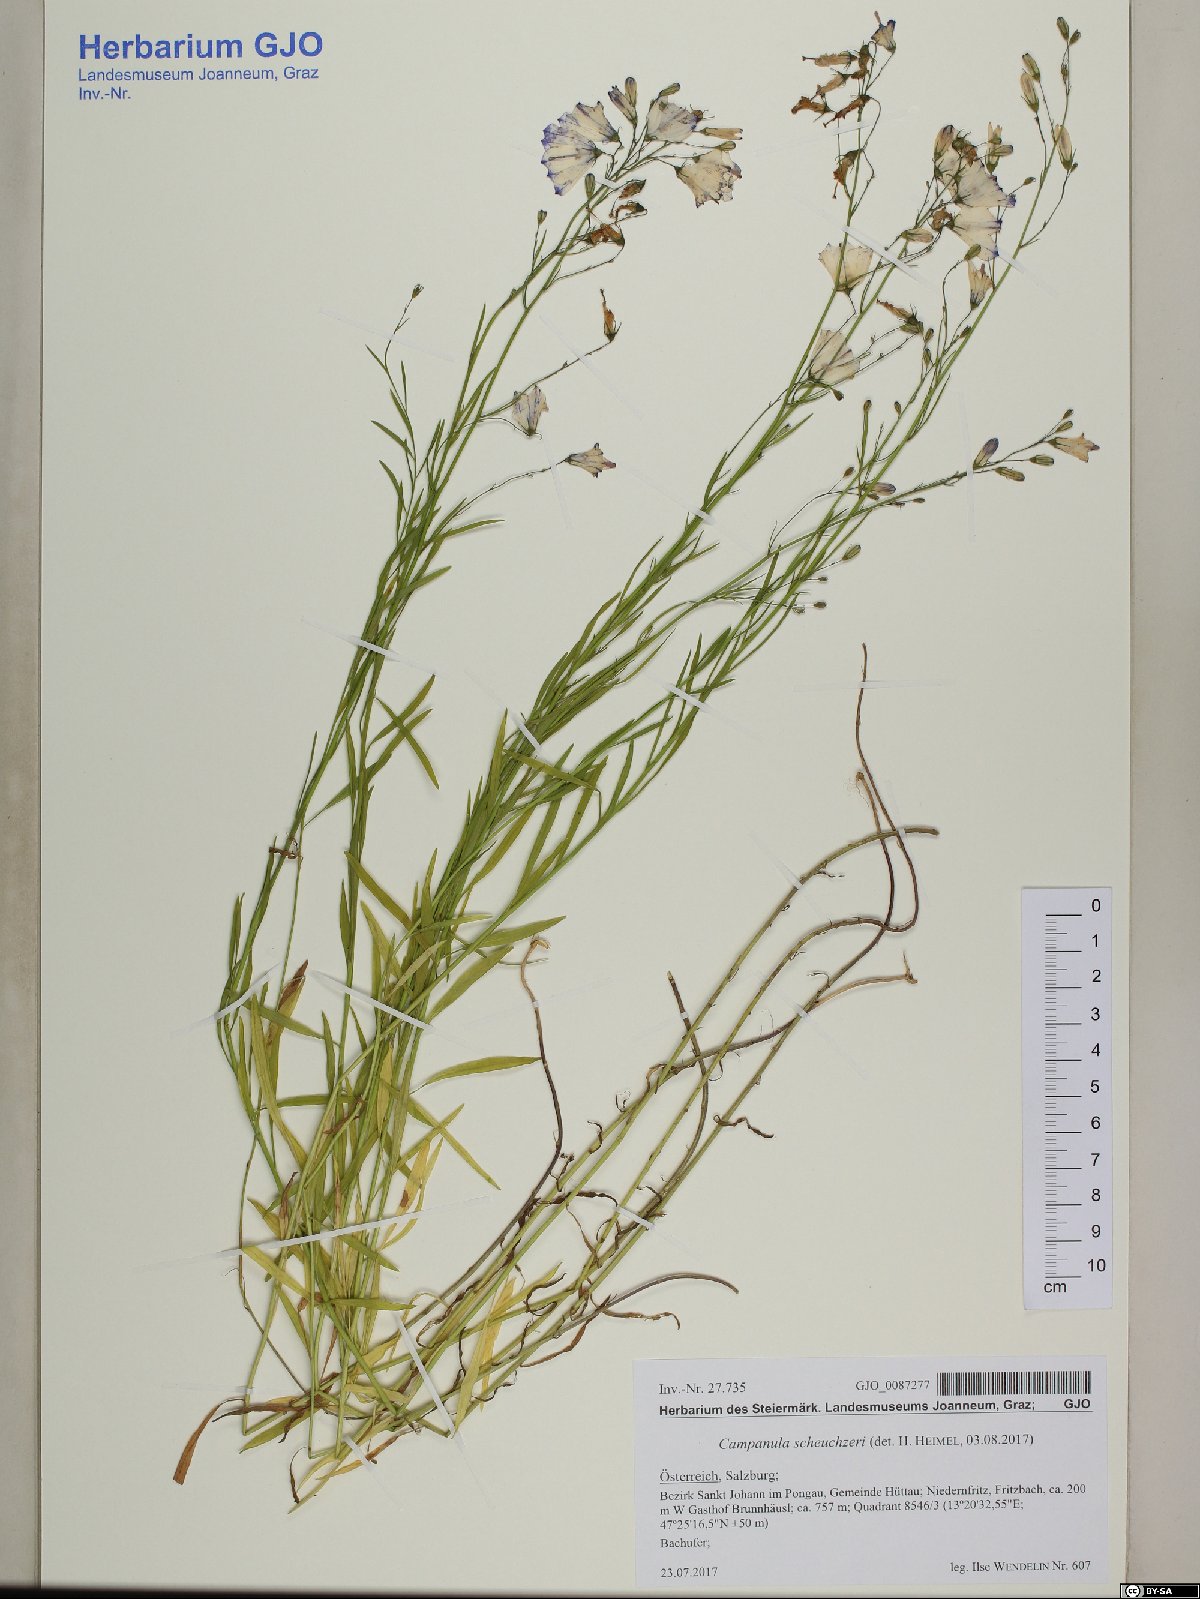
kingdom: Plantae
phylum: Tracheophyta
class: Magnoliopsida
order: Asterales
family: Campanulaceae
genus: Campanula
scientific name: Campanula rotundifolia
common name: Harebell
